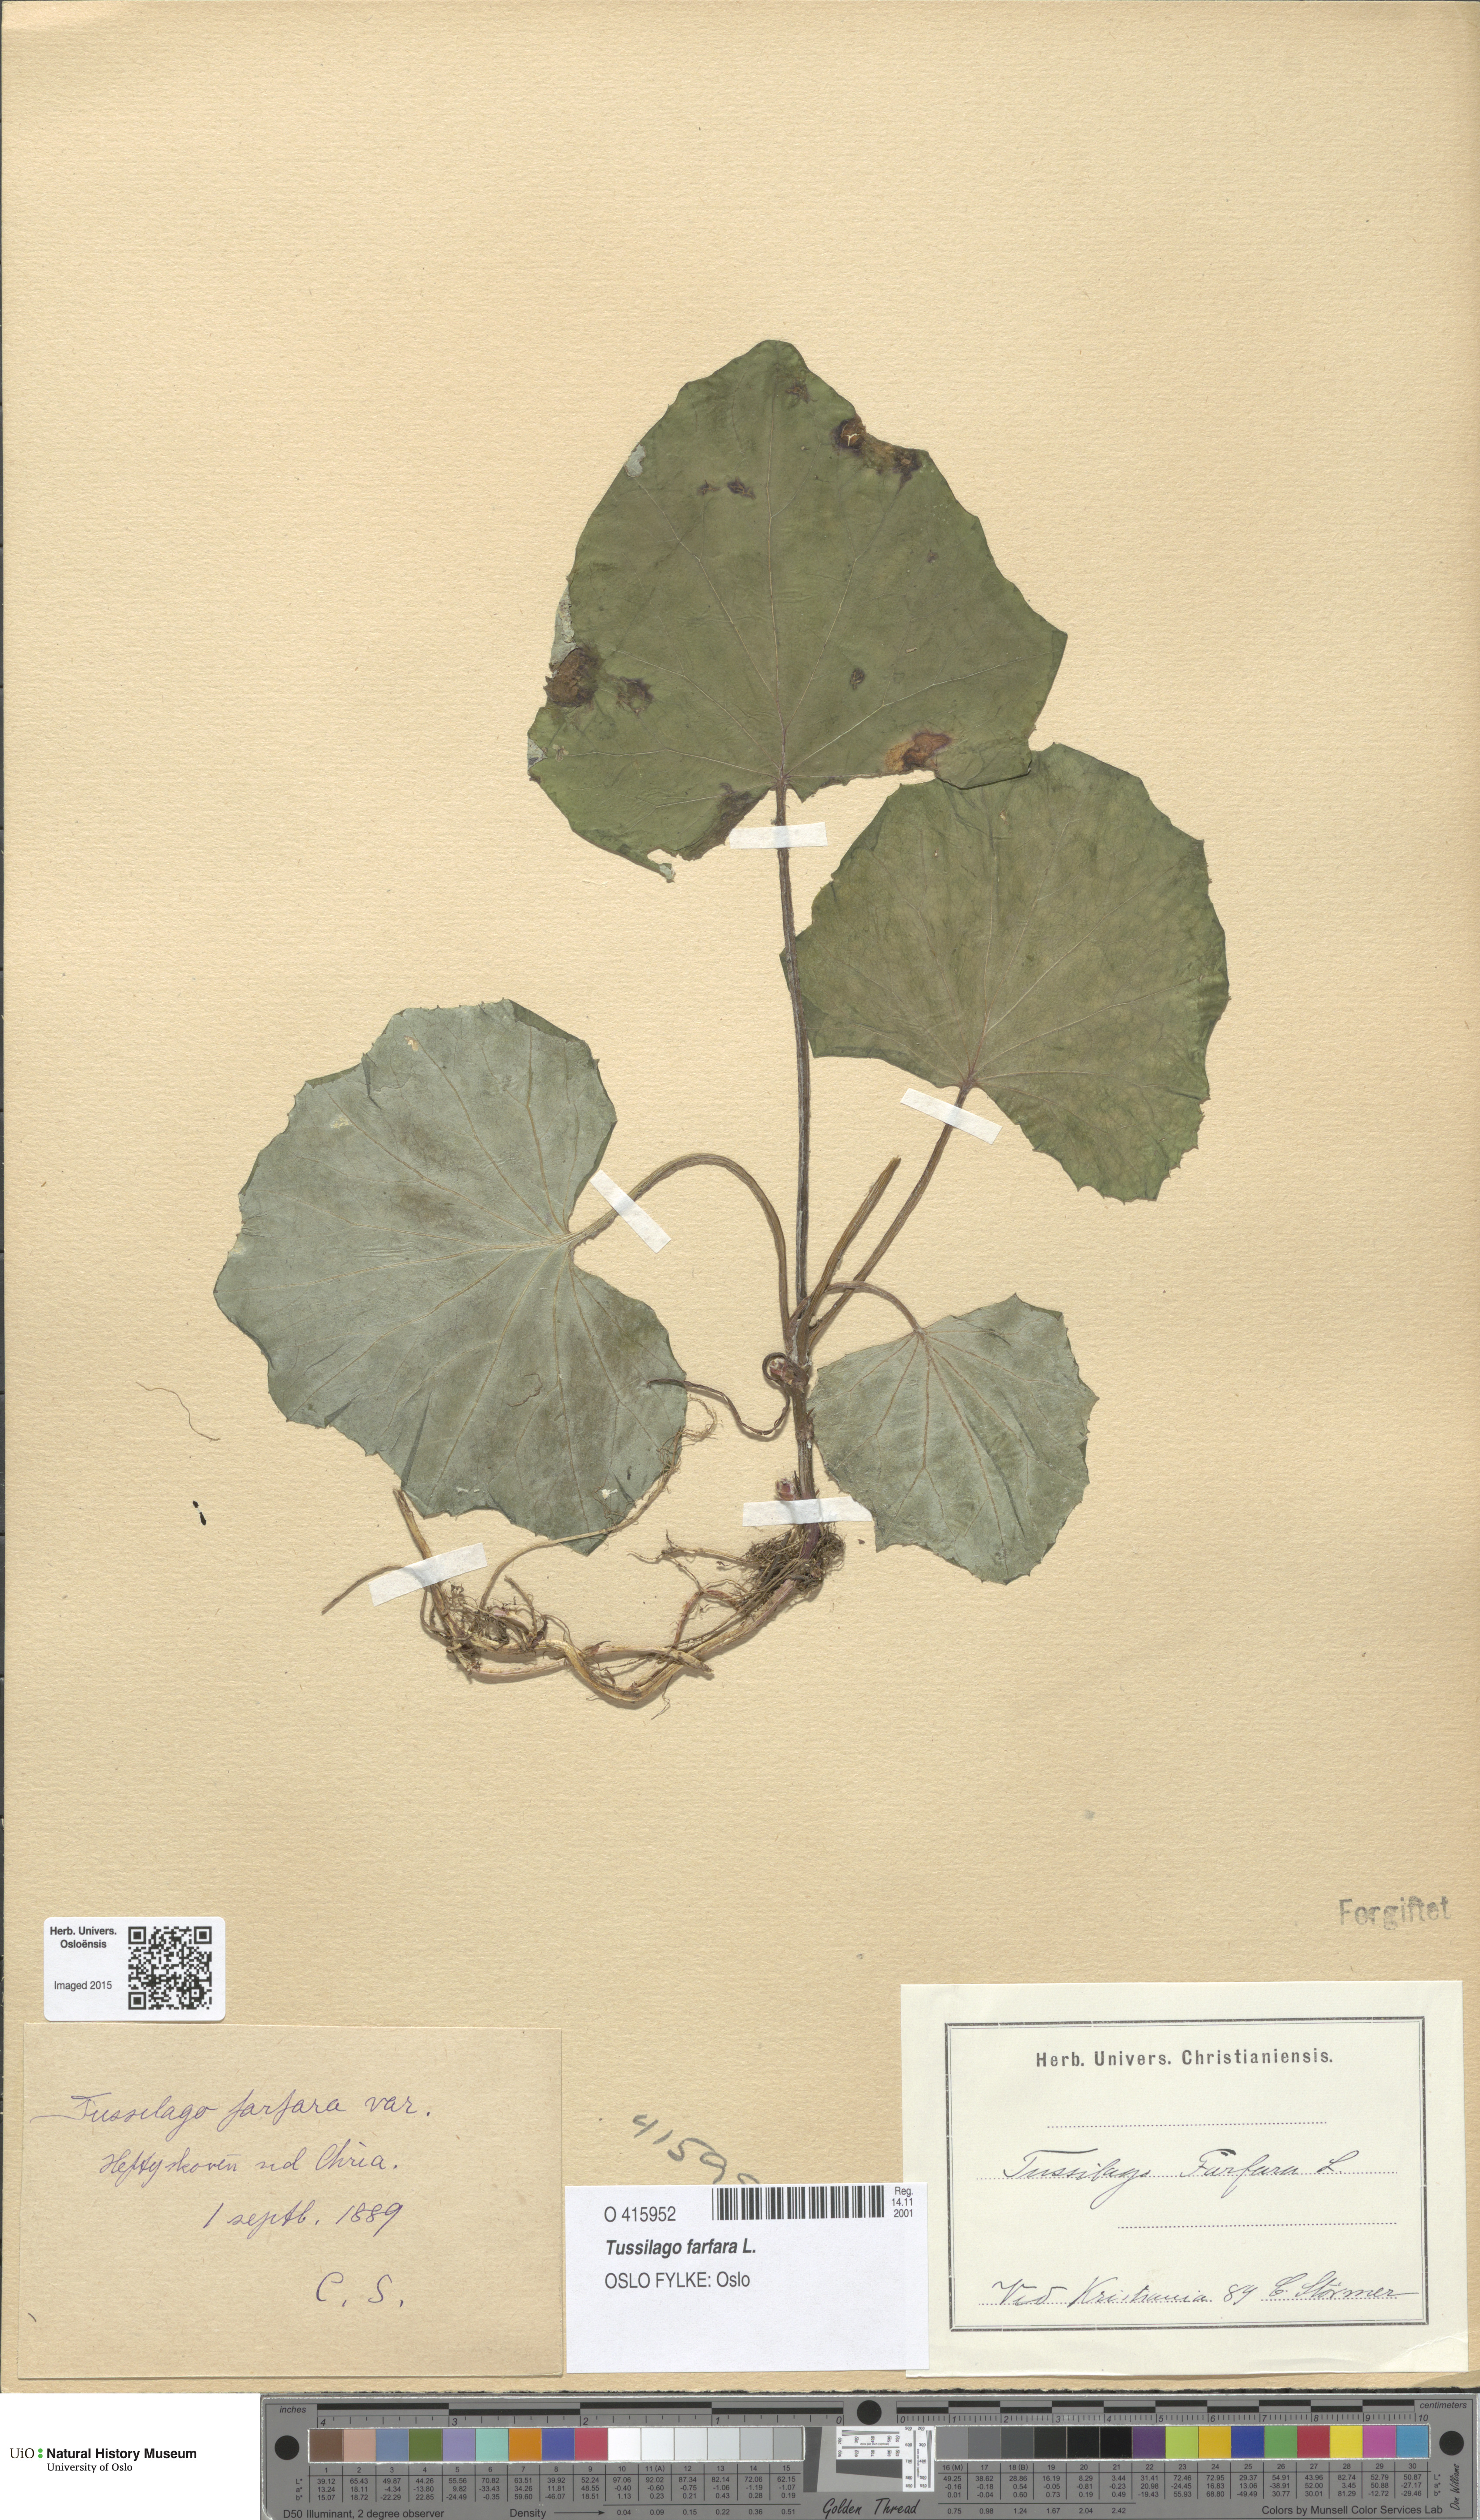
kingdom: Plantae
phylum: Tracheophyta
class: Magnoliopsida
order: Asterales
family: Asteraceae
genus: Tussilago
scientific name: Tussilago farfara
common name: Coltsfoot
